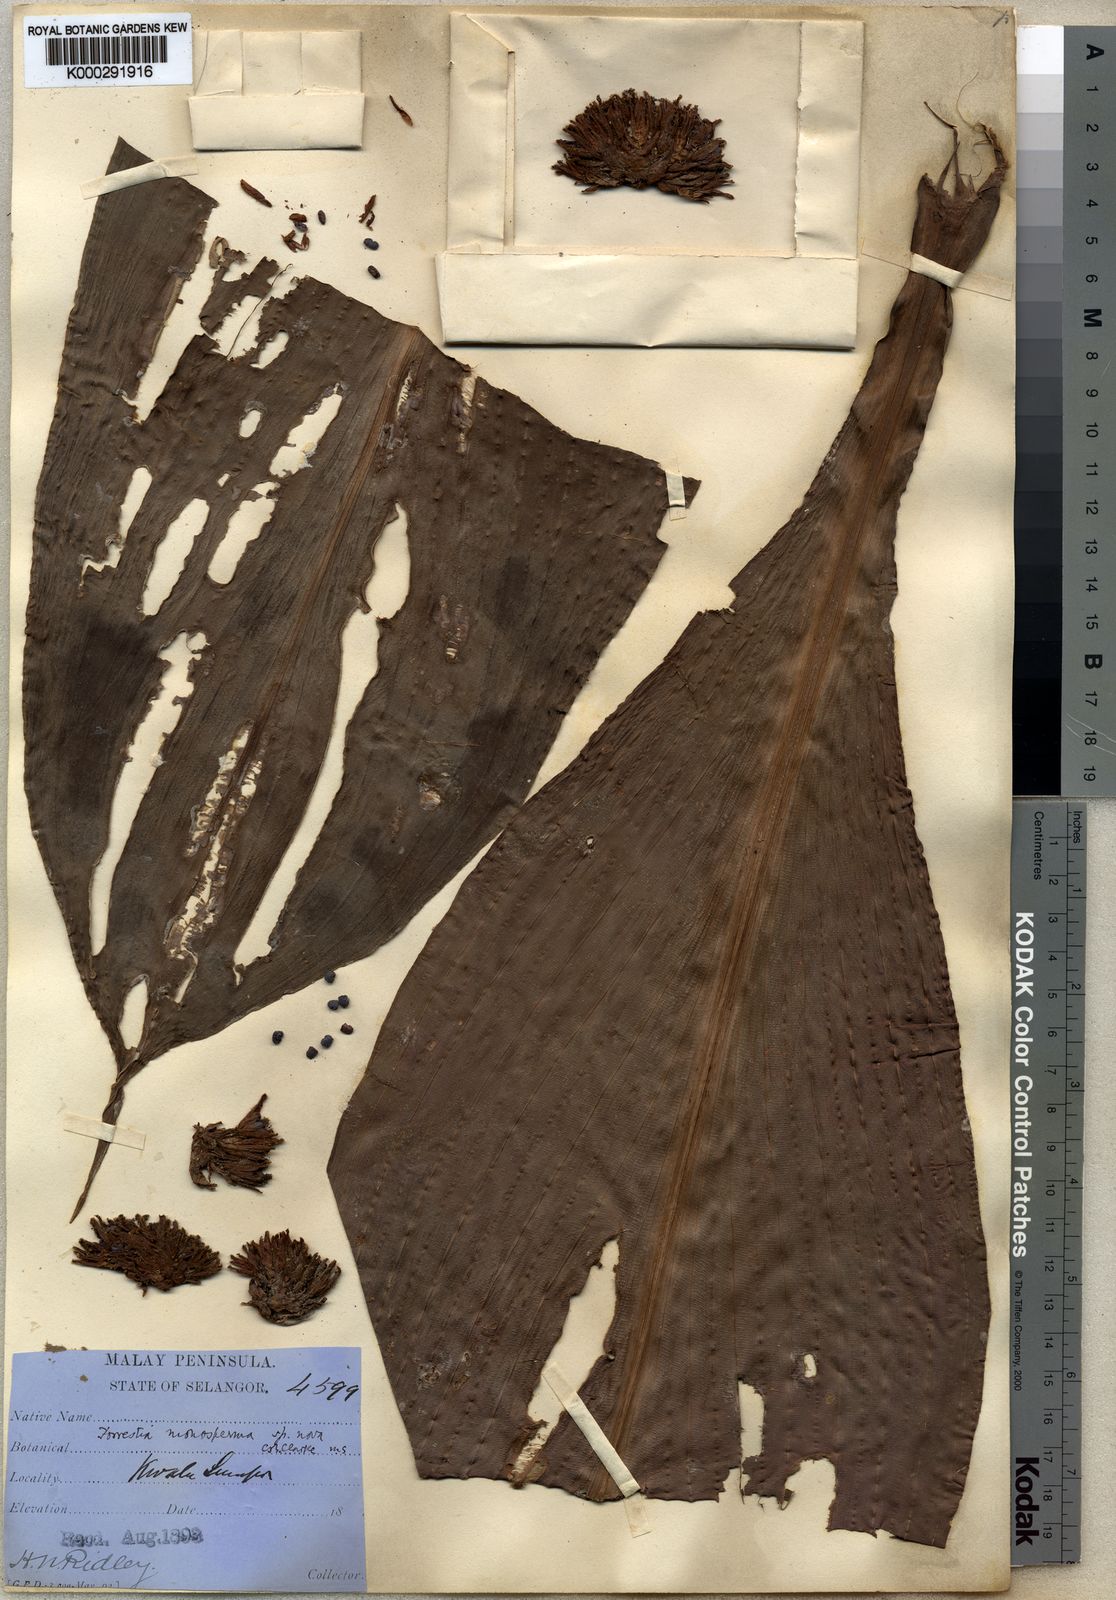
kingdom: Plantae
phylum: Tracheophyta
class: Liliopsida
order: Commelinales
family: Commelinaceae
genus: Amischotolype
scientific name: Amischotolype monosperma
